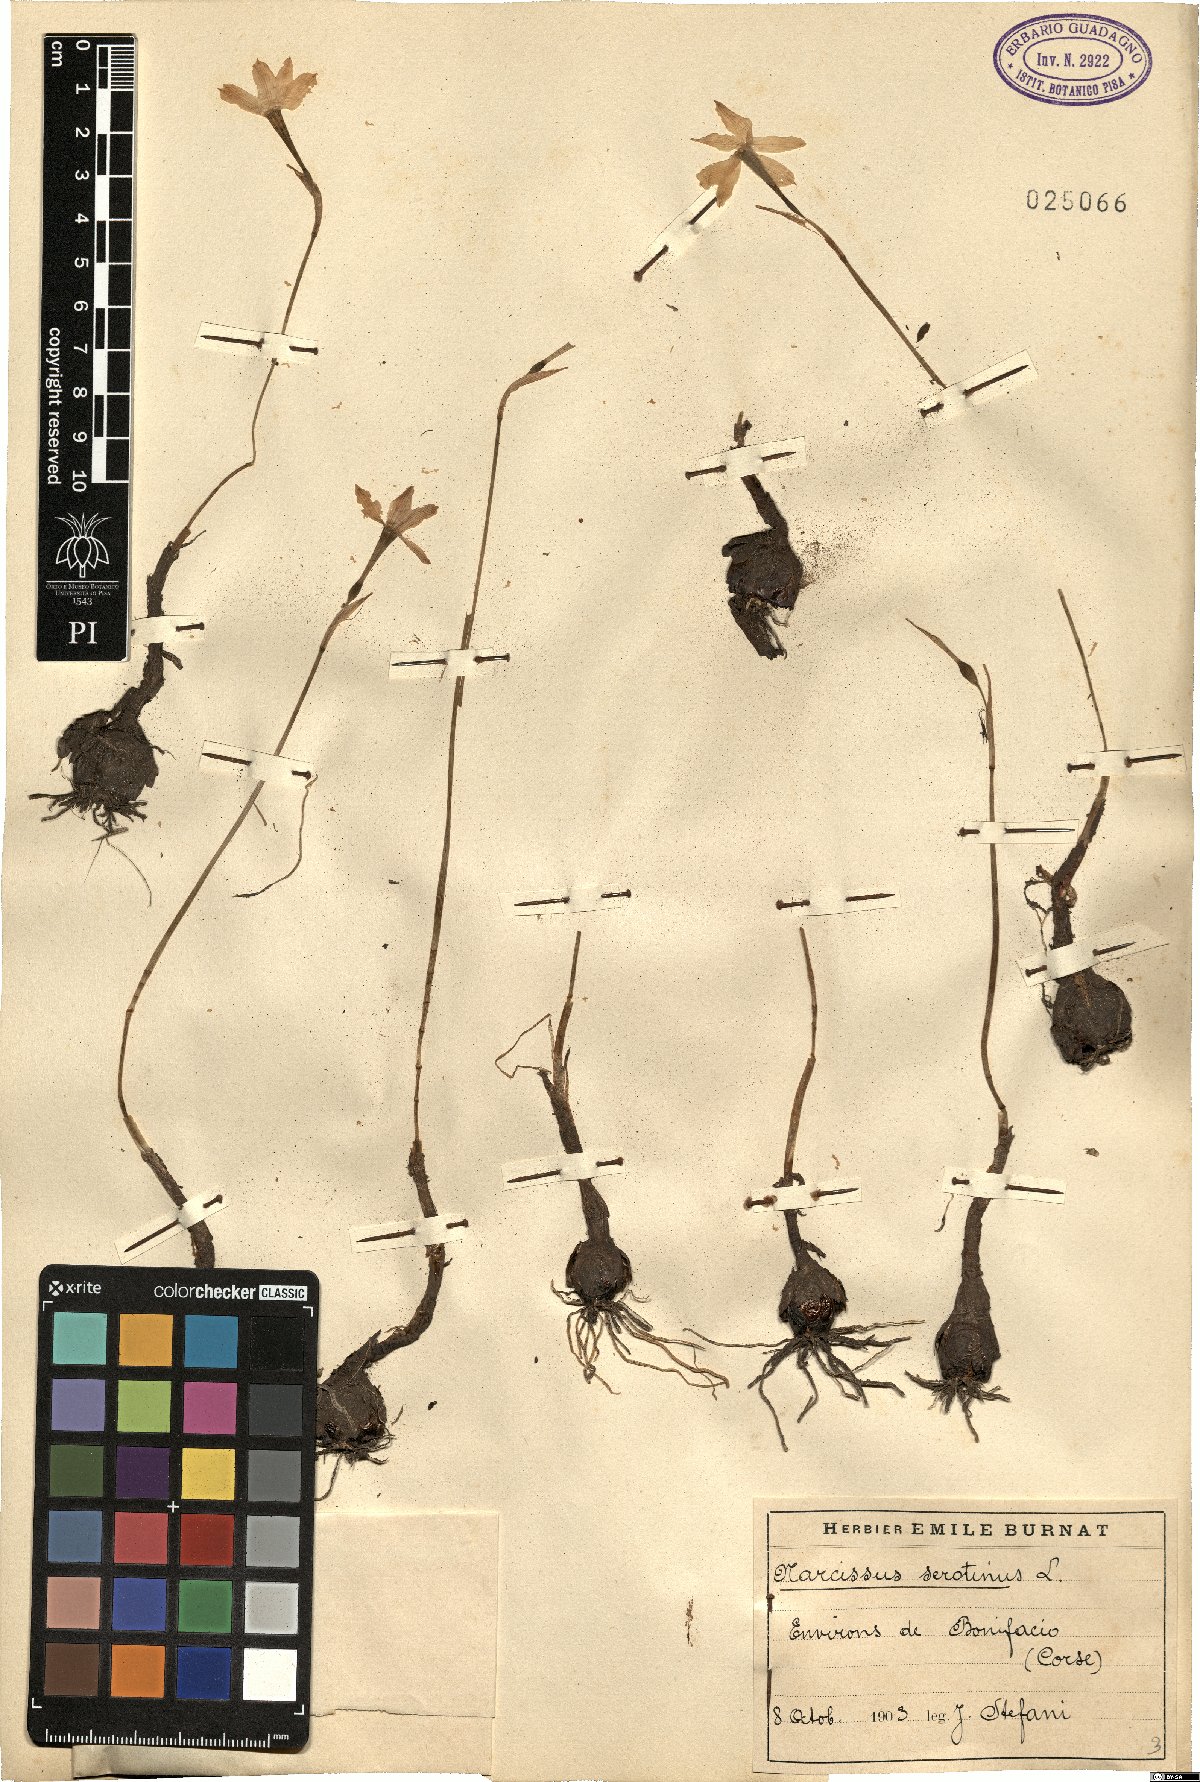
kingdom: Plantae
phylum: Tracheophyta
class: Liliopsida
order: Asparagales
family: Amaryllidaceae
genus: Narcissus
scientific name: Narcissus serotinus
